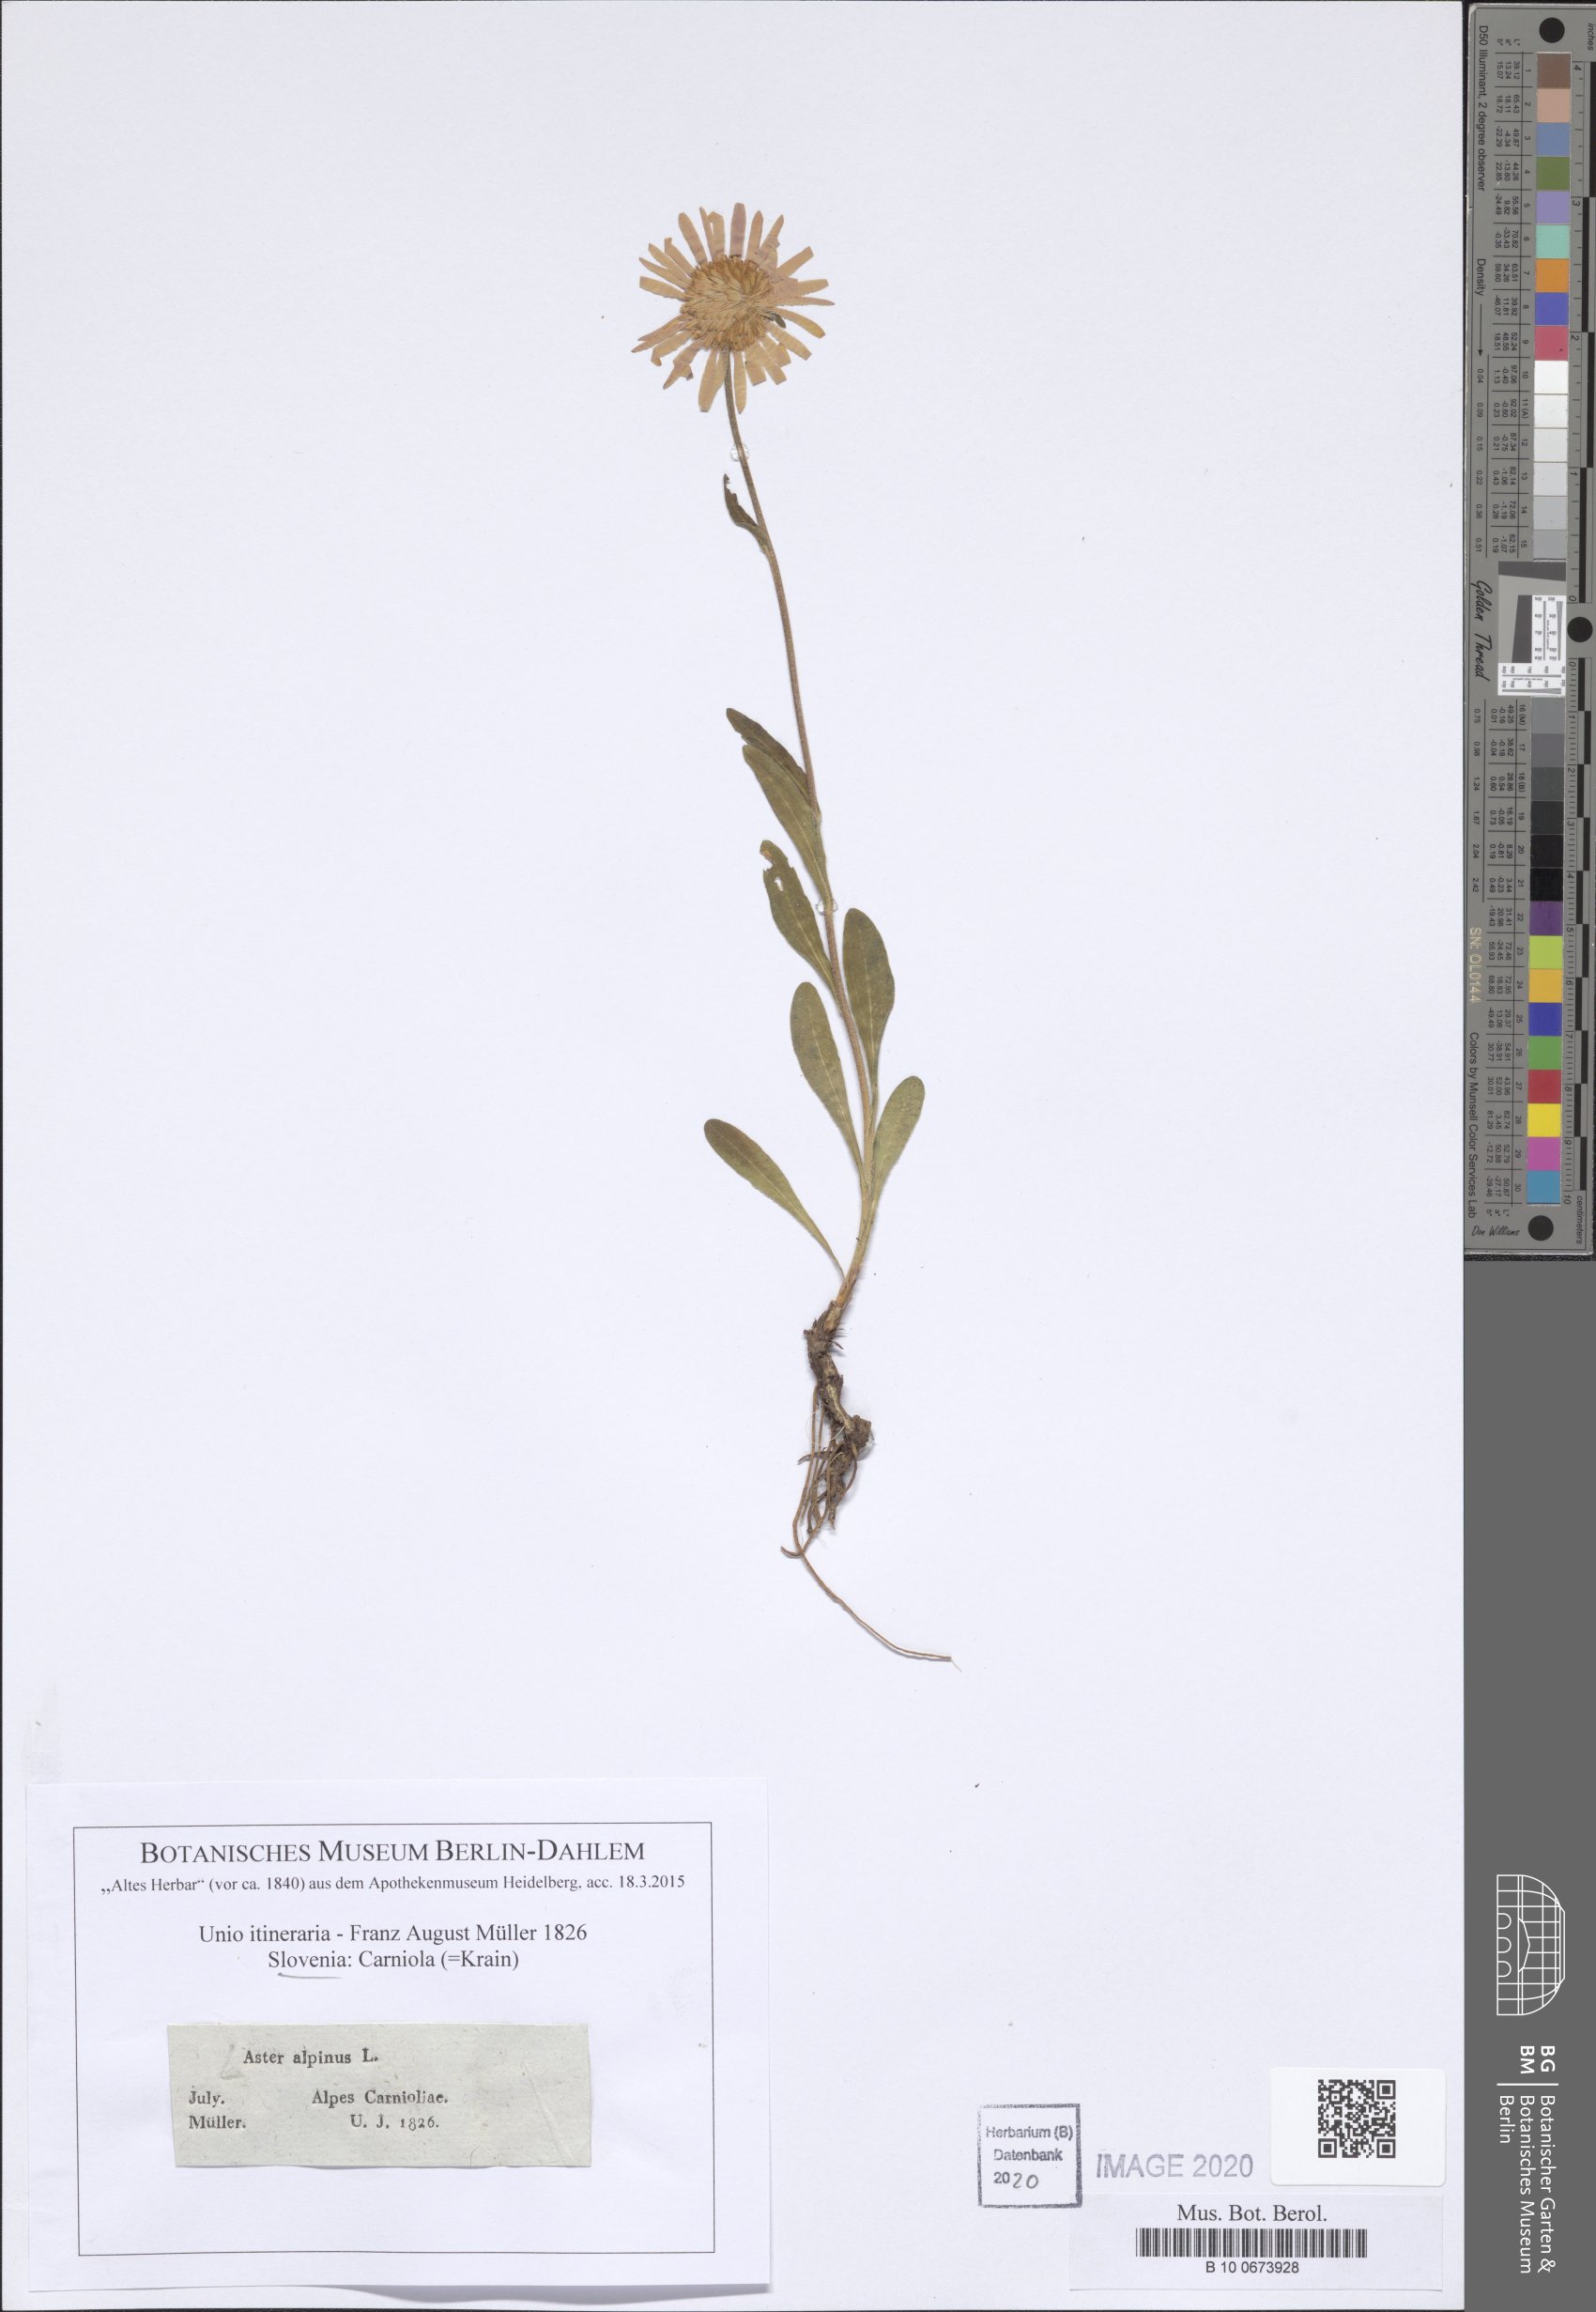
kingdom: Plantae
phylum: Tracheophyta
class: Magnoliopsida
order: Asterales
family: Asteraceae
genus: Aster
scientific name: Aster alpinus
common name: Alpine aster
